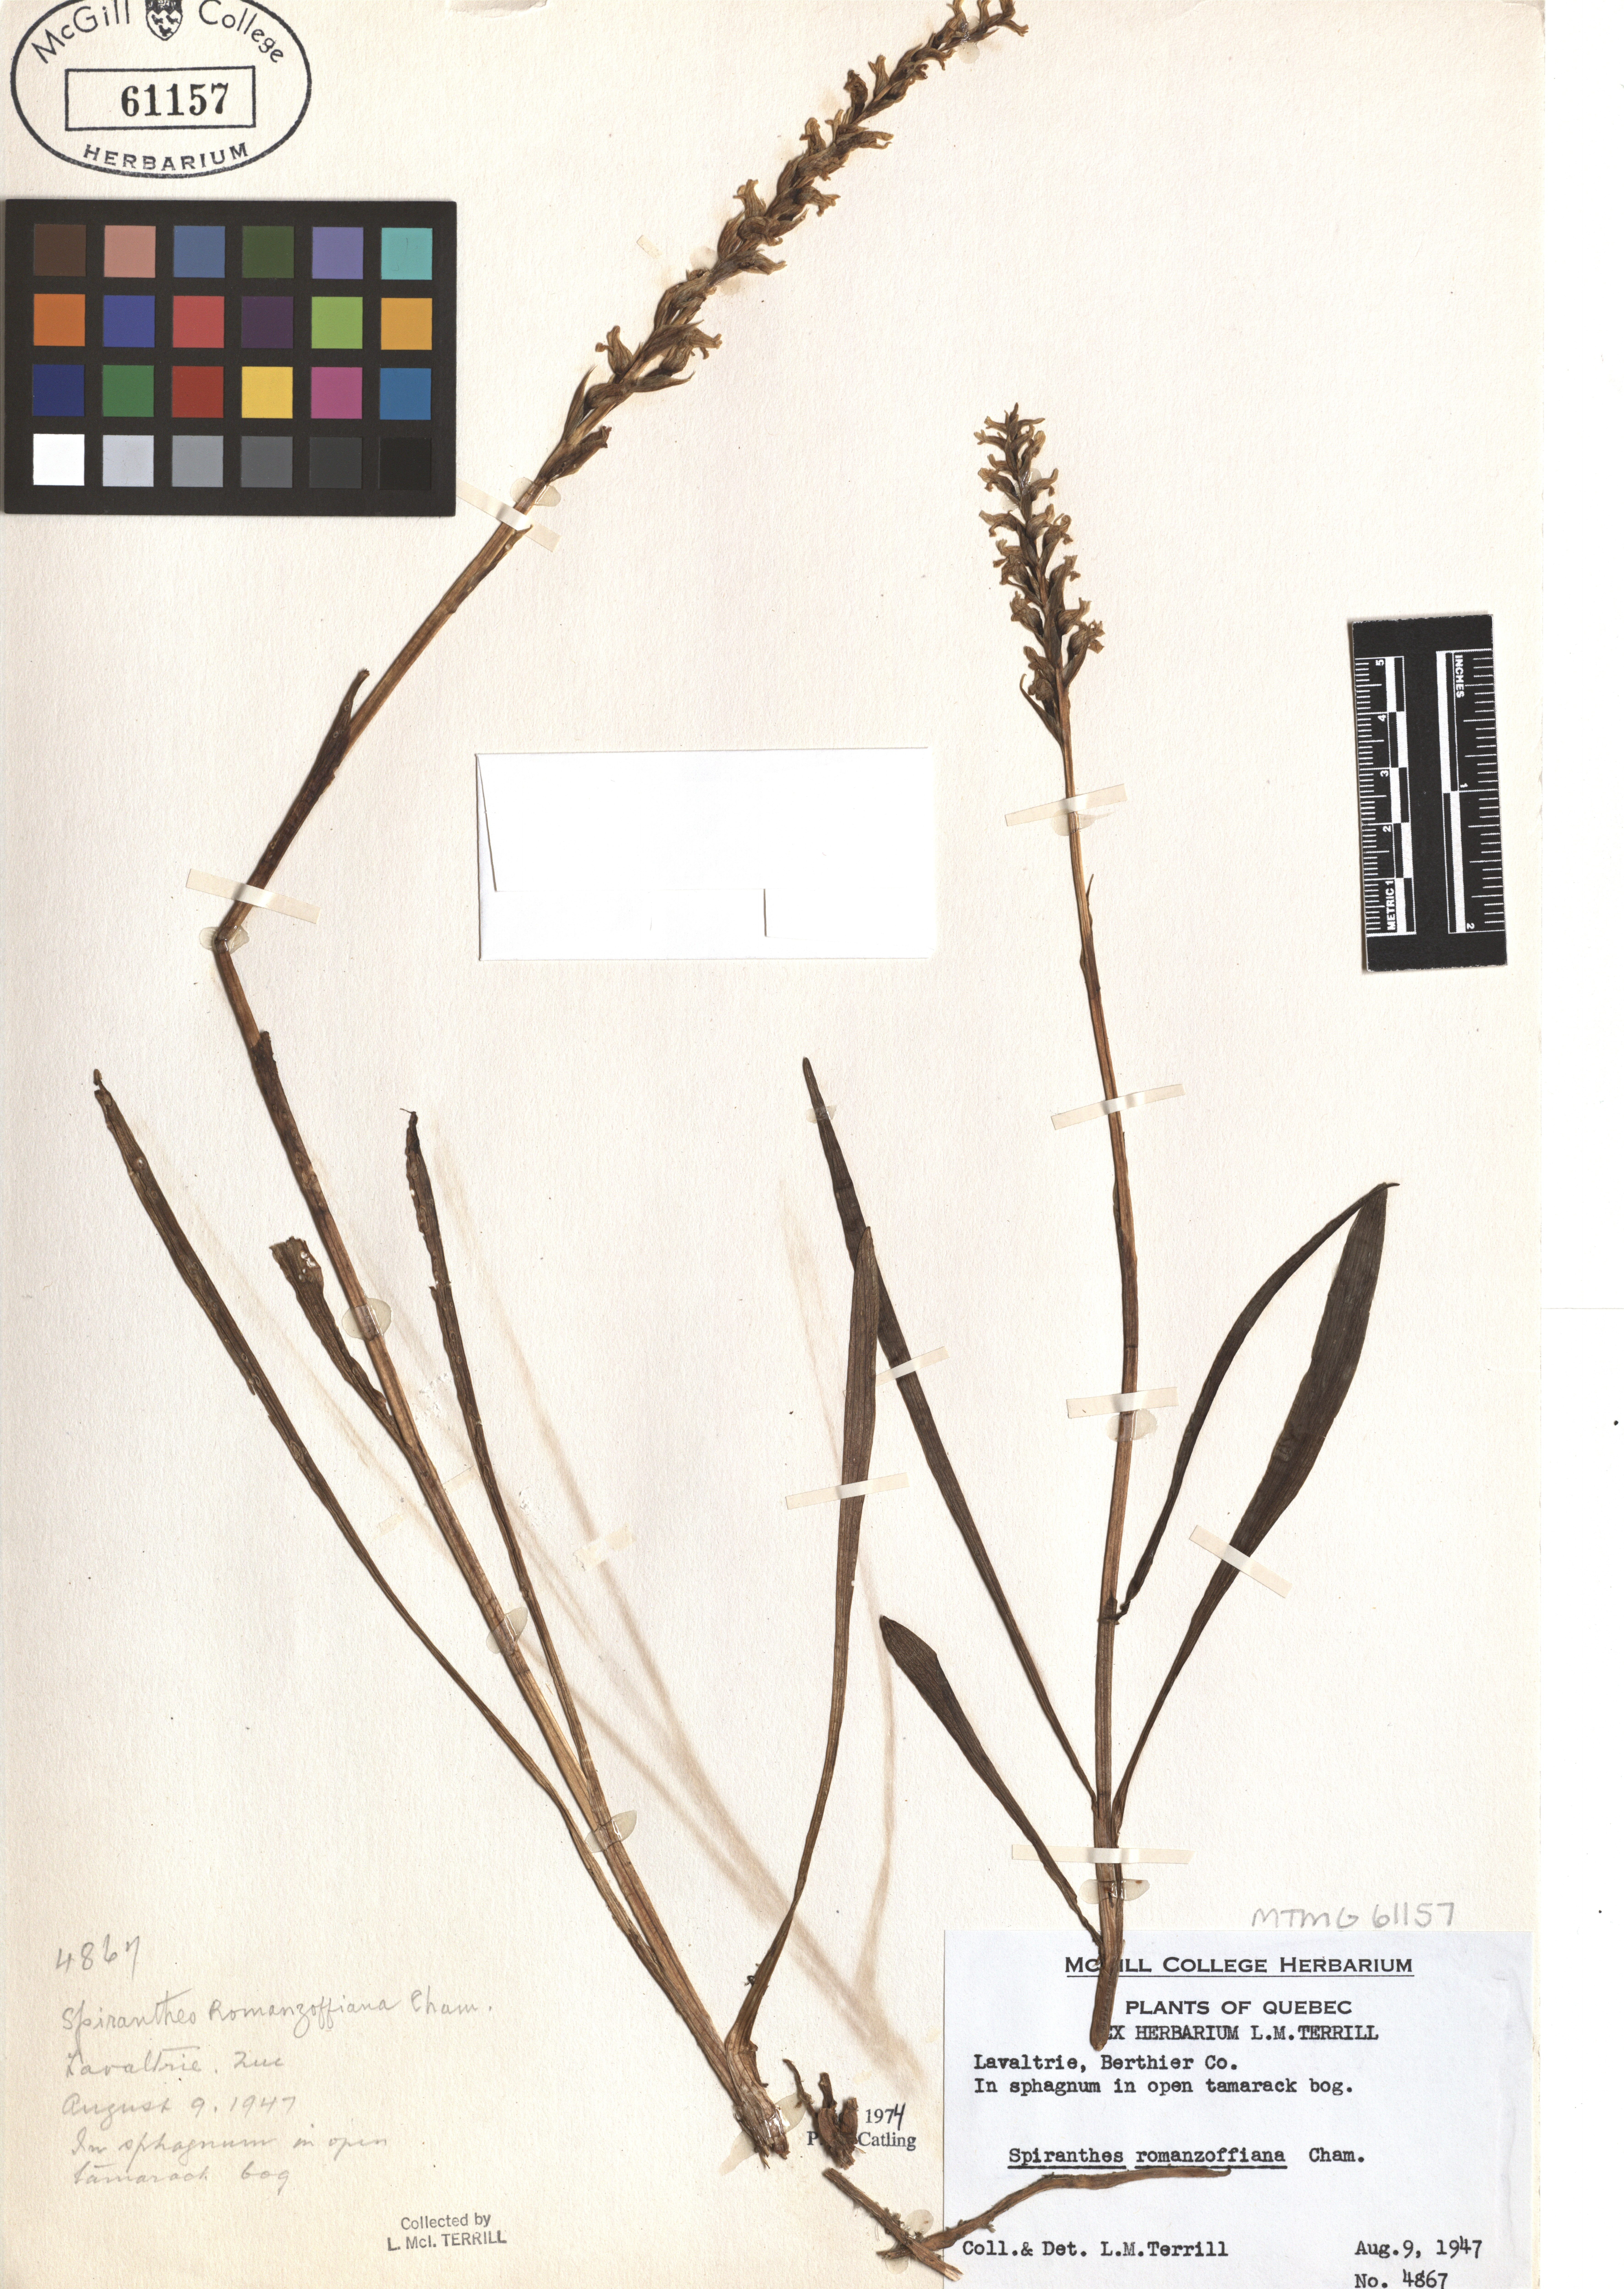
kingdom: Plantae
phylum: Tracheophyta
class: Liliopsida
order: Asparagales
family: Orchidaceae
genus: Spiranthes
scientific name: Spiranthes romanzoffiana
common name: Irish lady's-tresses
